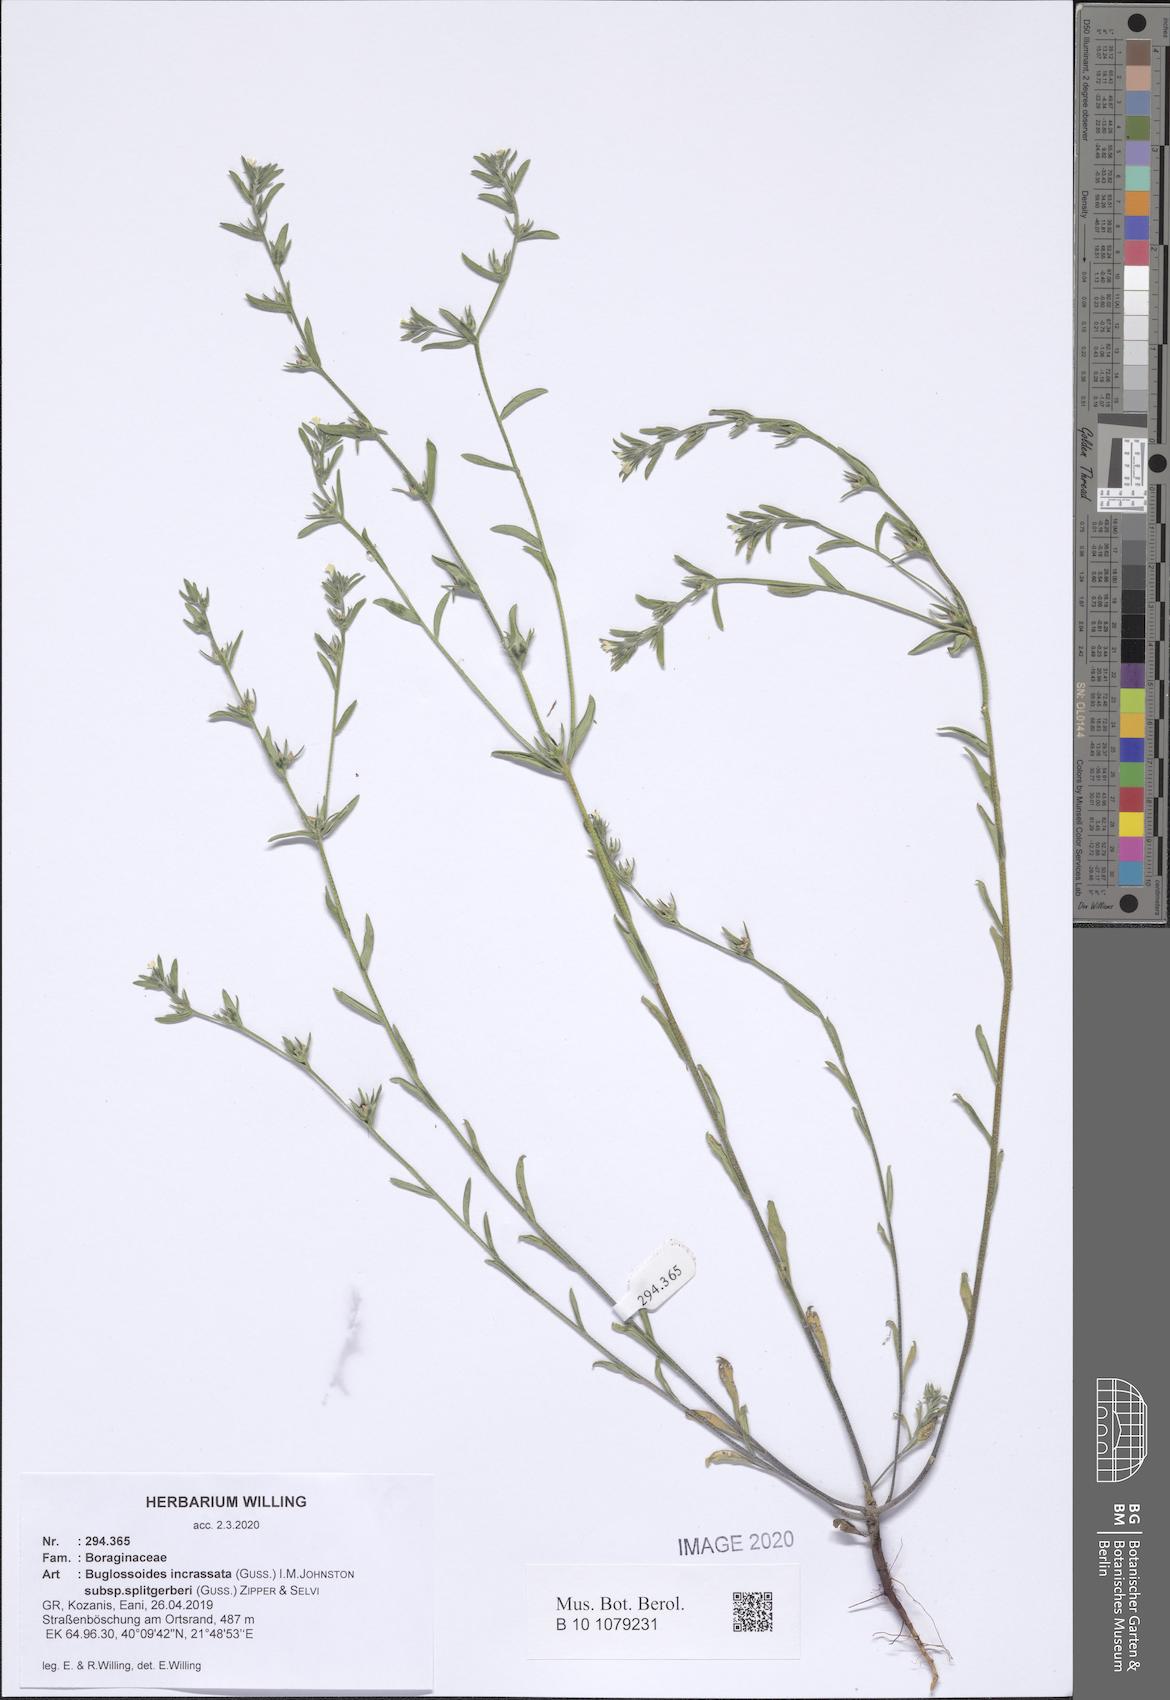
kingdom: Plantae
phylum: Tracheophyta
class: Magnoliopsida
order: Boraginales
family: Boraginaceae
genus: Buglossoides
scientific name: Buglossoides incrassata
